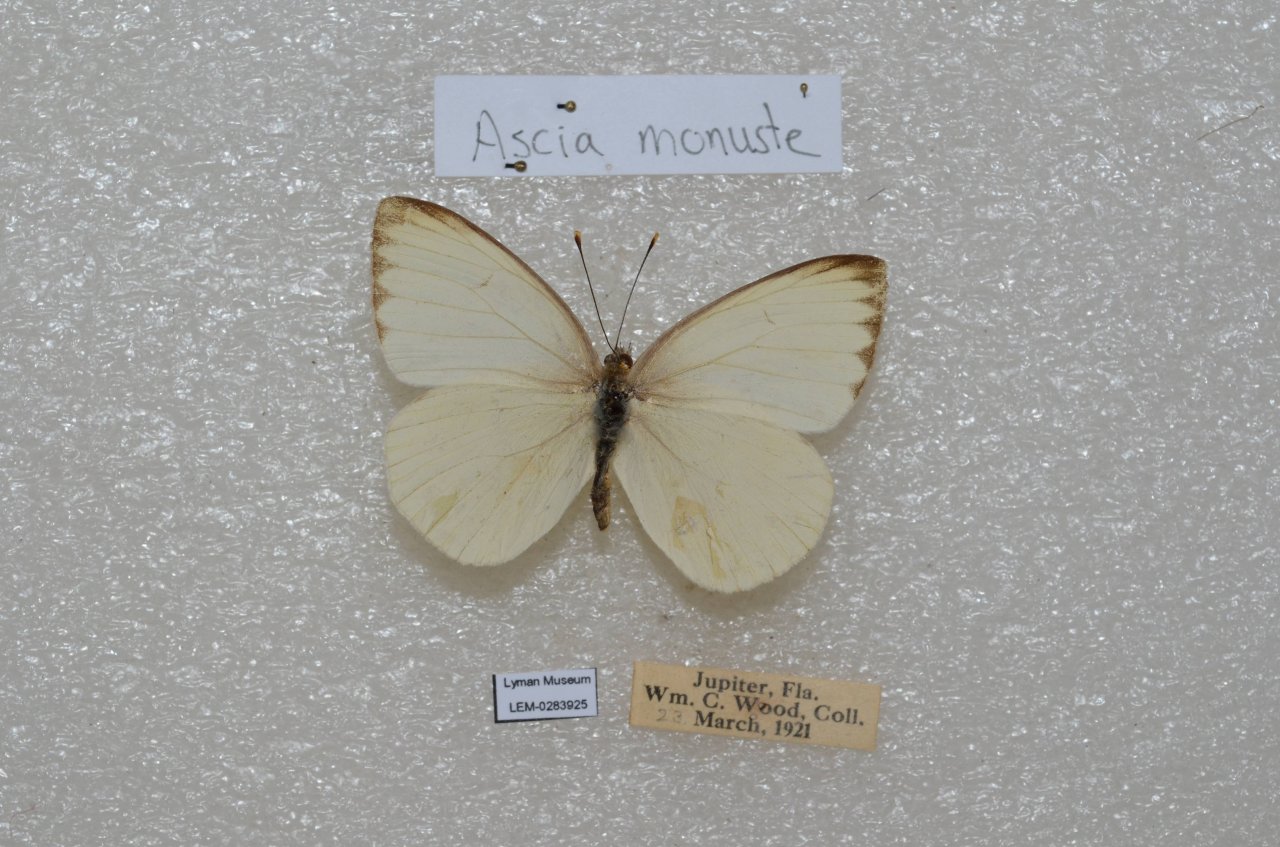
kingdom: Animalia
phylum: Arthropoda
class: Insecta
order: Lepidoptera
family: Pieridae
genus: Ascia
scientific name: Ascia monuste
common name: Great Southern White
